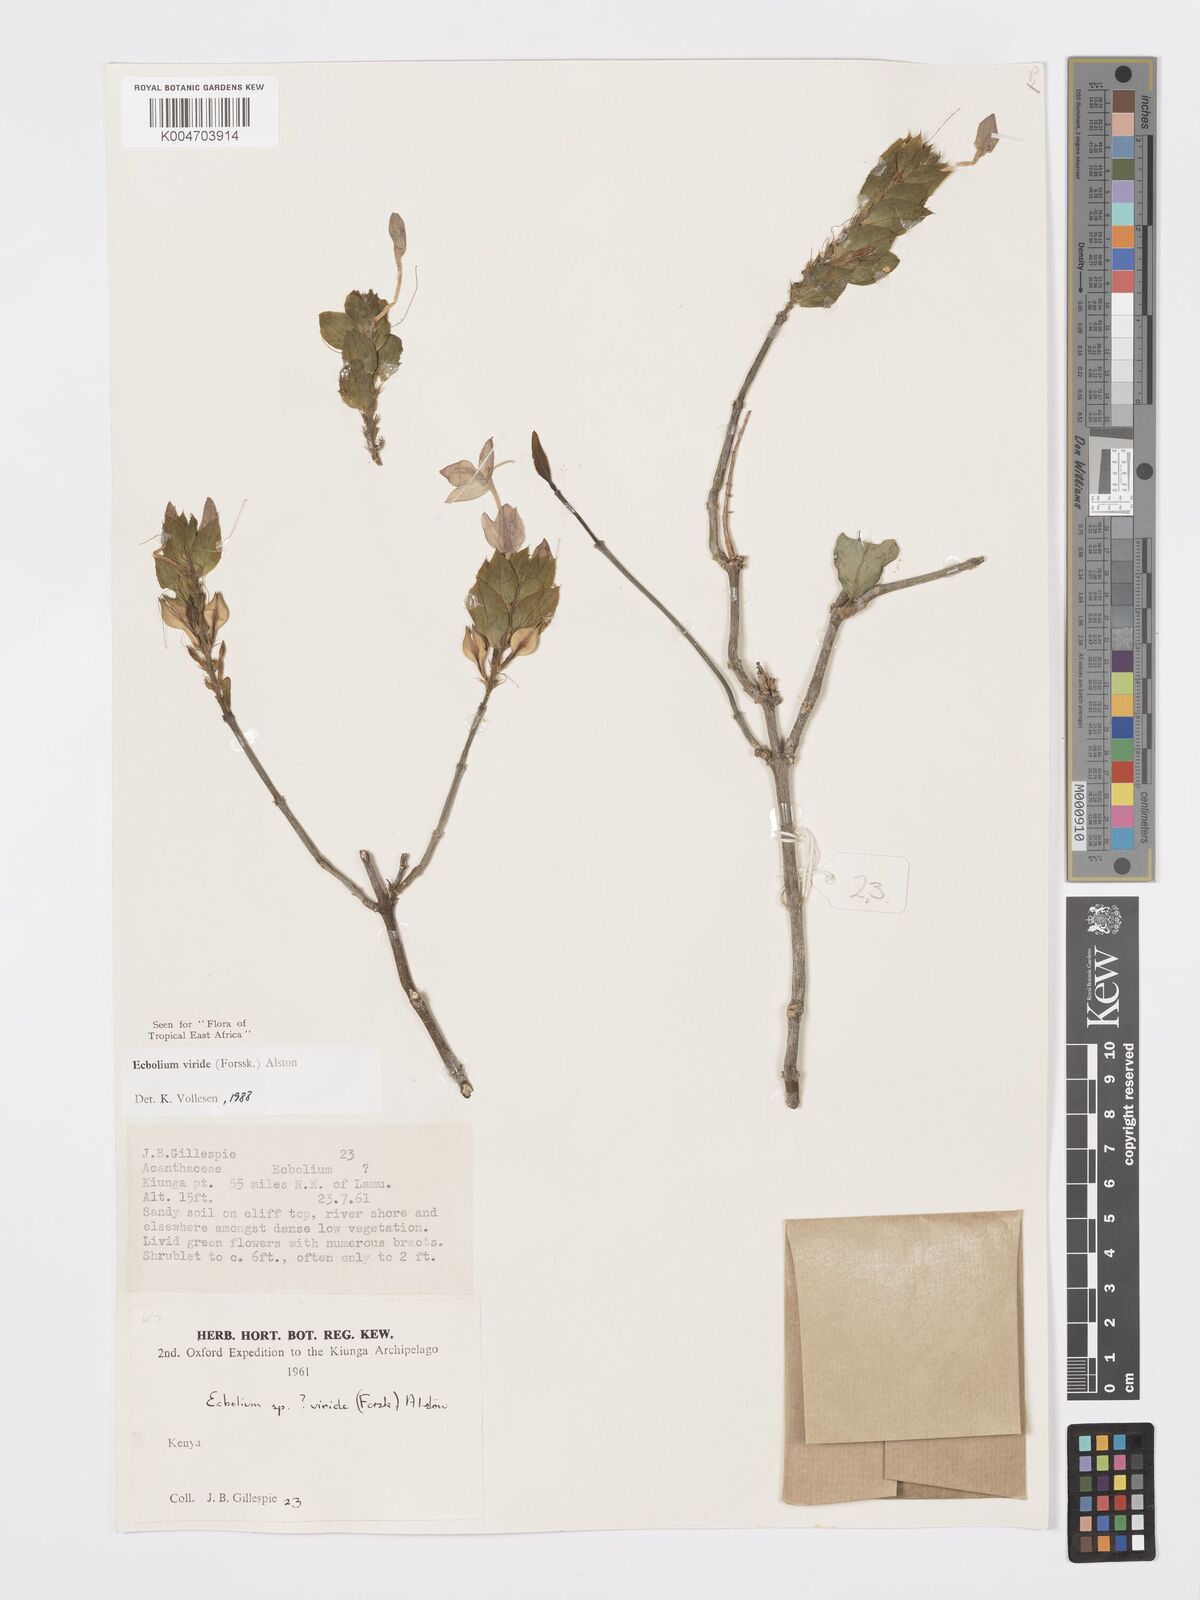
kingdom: Plantae
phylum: Tracheophyta
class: Magnoliopsida
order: Lamiales
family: Acanthaceae
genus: Ecbolium
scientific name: Ecbolium viride
